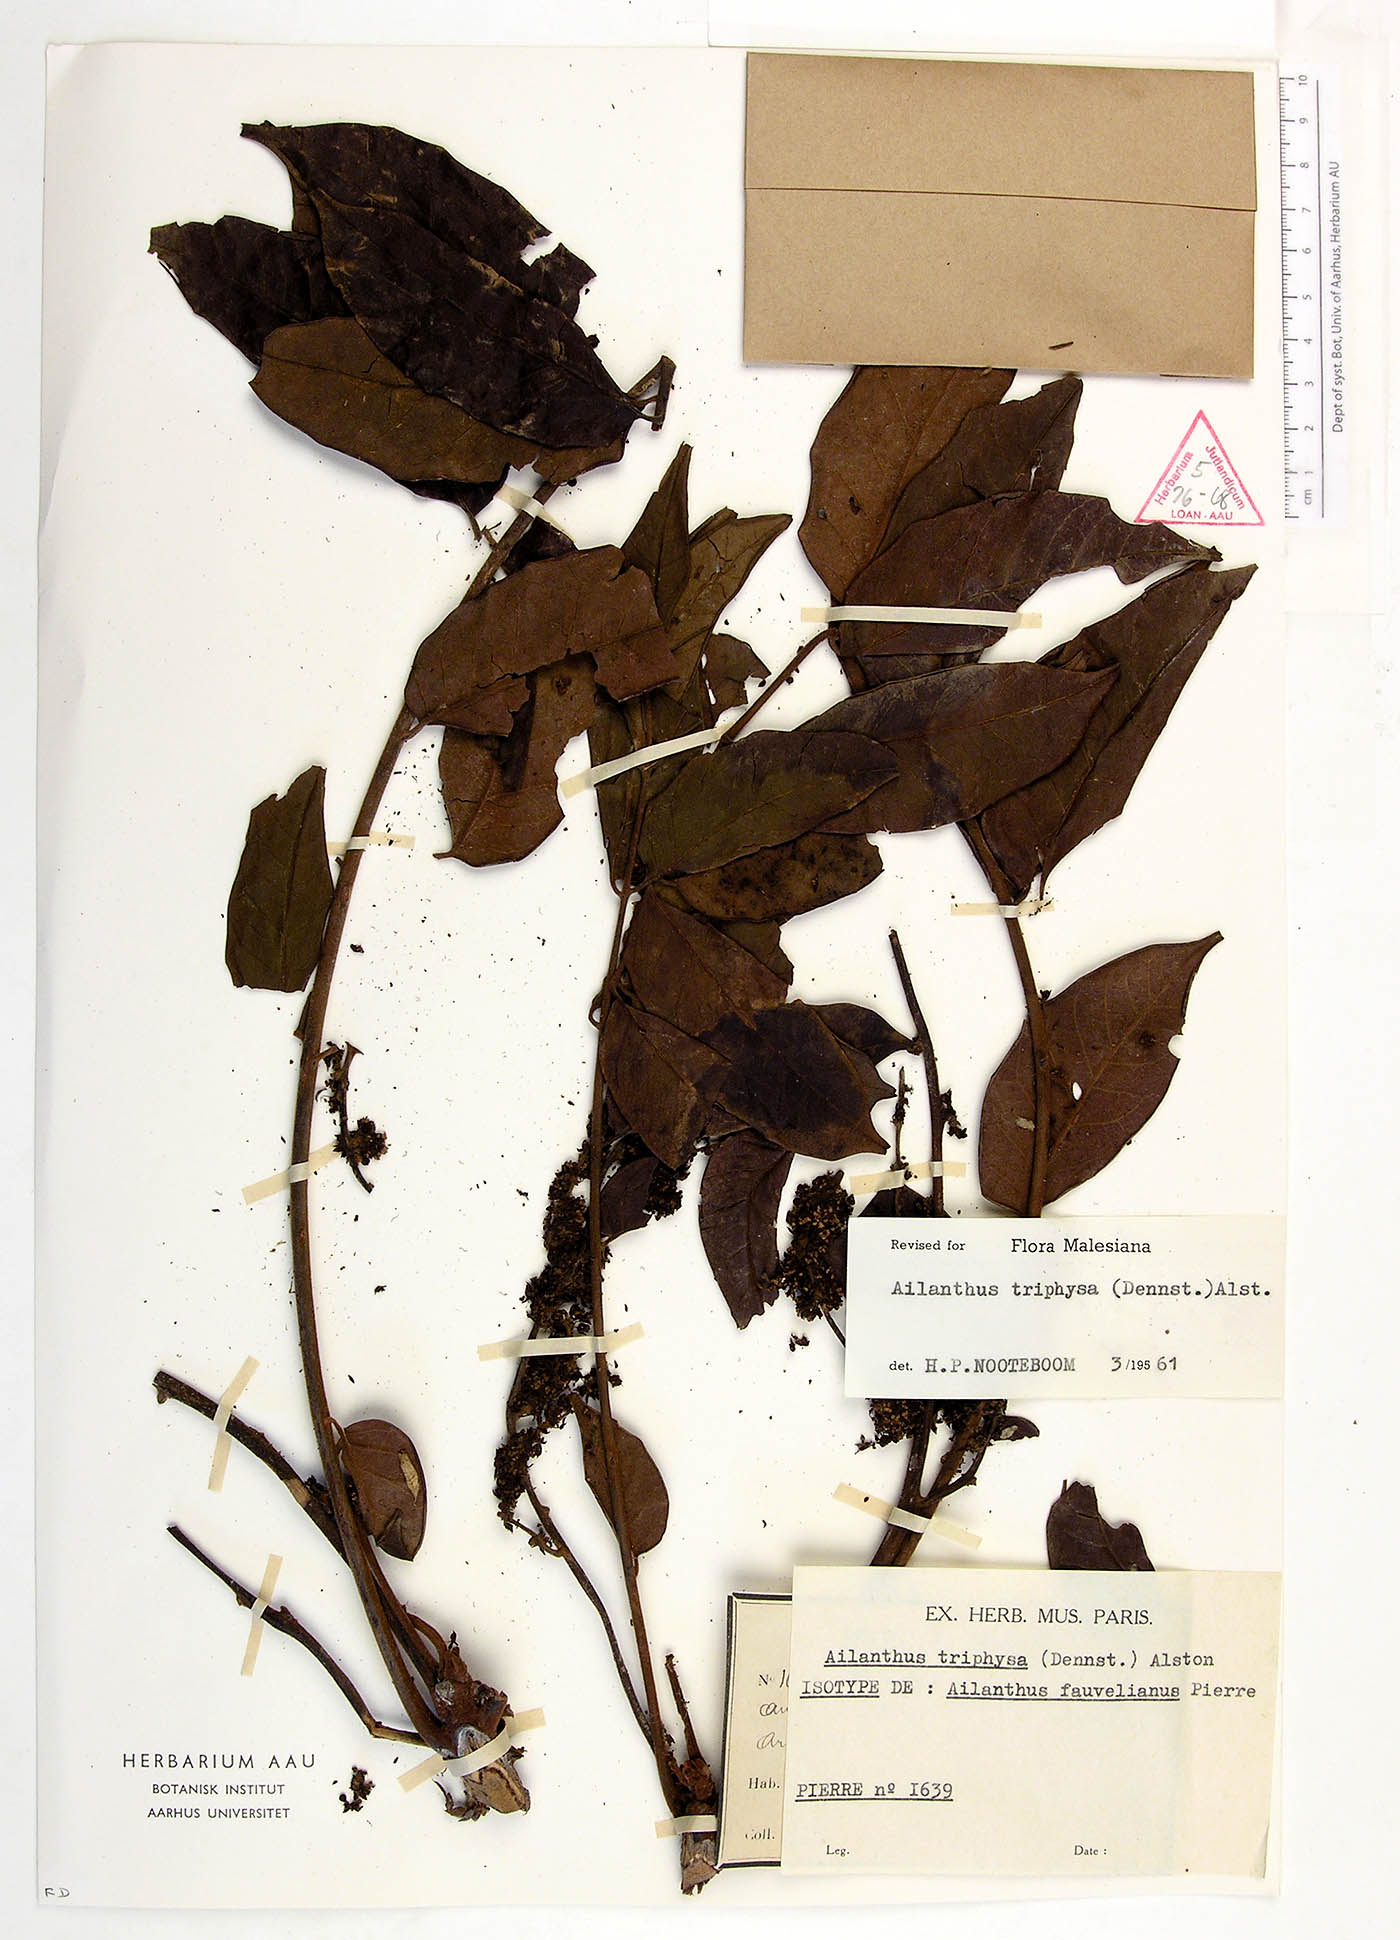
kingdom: Plantae
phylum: Tracheophyta
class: Magnoliopsida
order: Sapindales
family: Simaroubaceae
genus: Ailanthus
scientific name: Ailanthus triphysa
